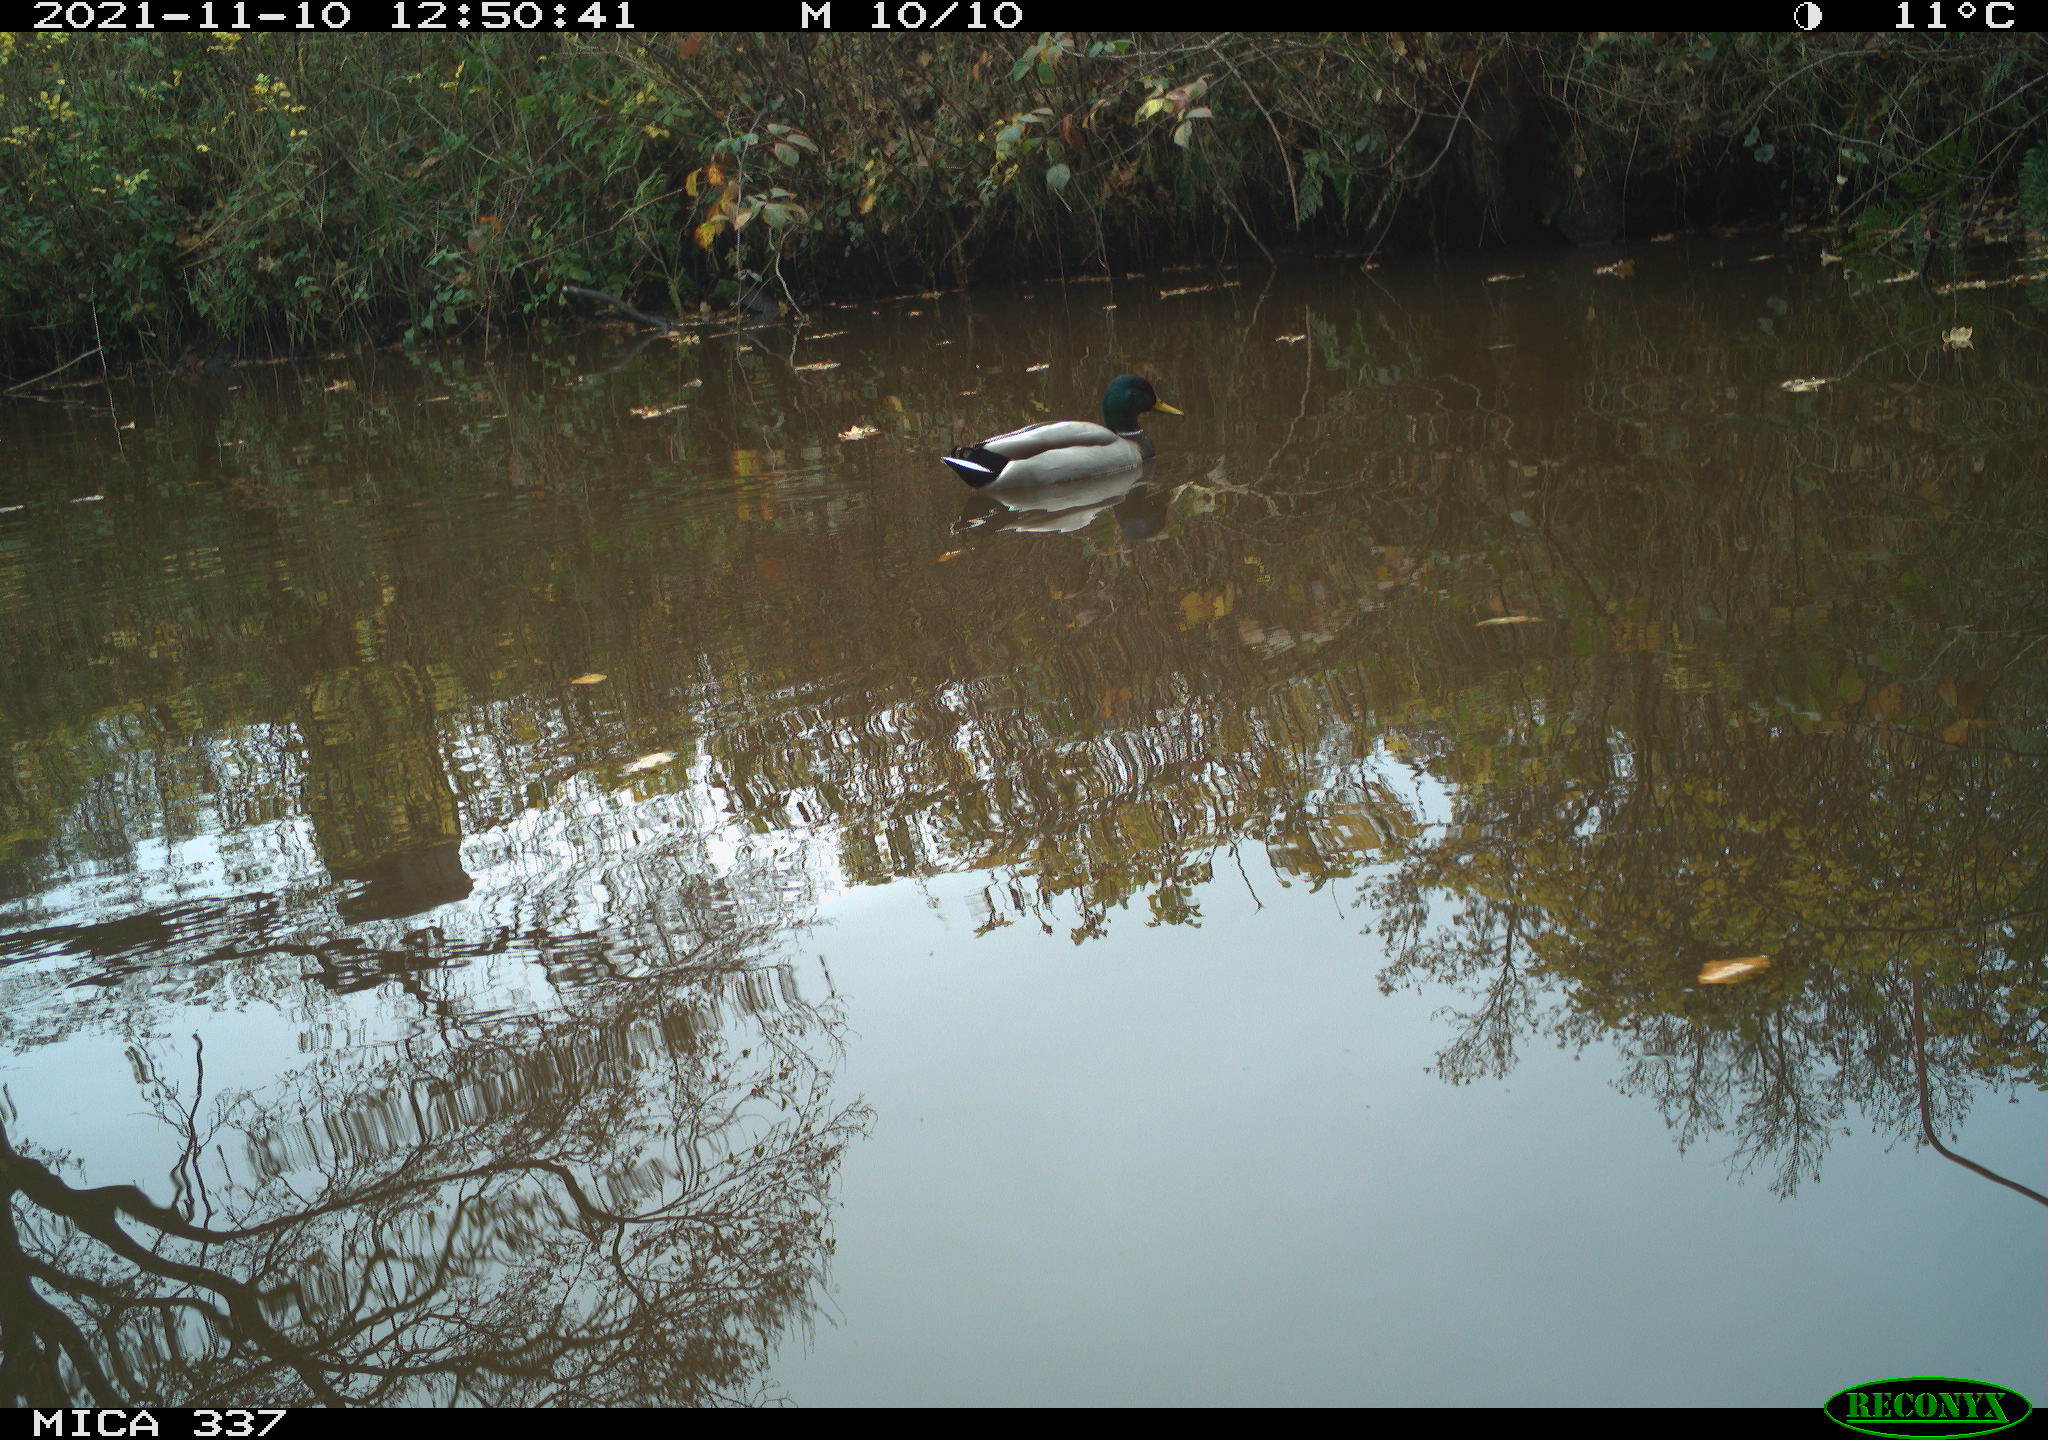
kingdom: Animalia
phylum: Chordata
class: Aves
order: Anseriformes
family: Anatidae
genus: Anas
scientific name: Anas platyrhynchos
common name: Mallard
